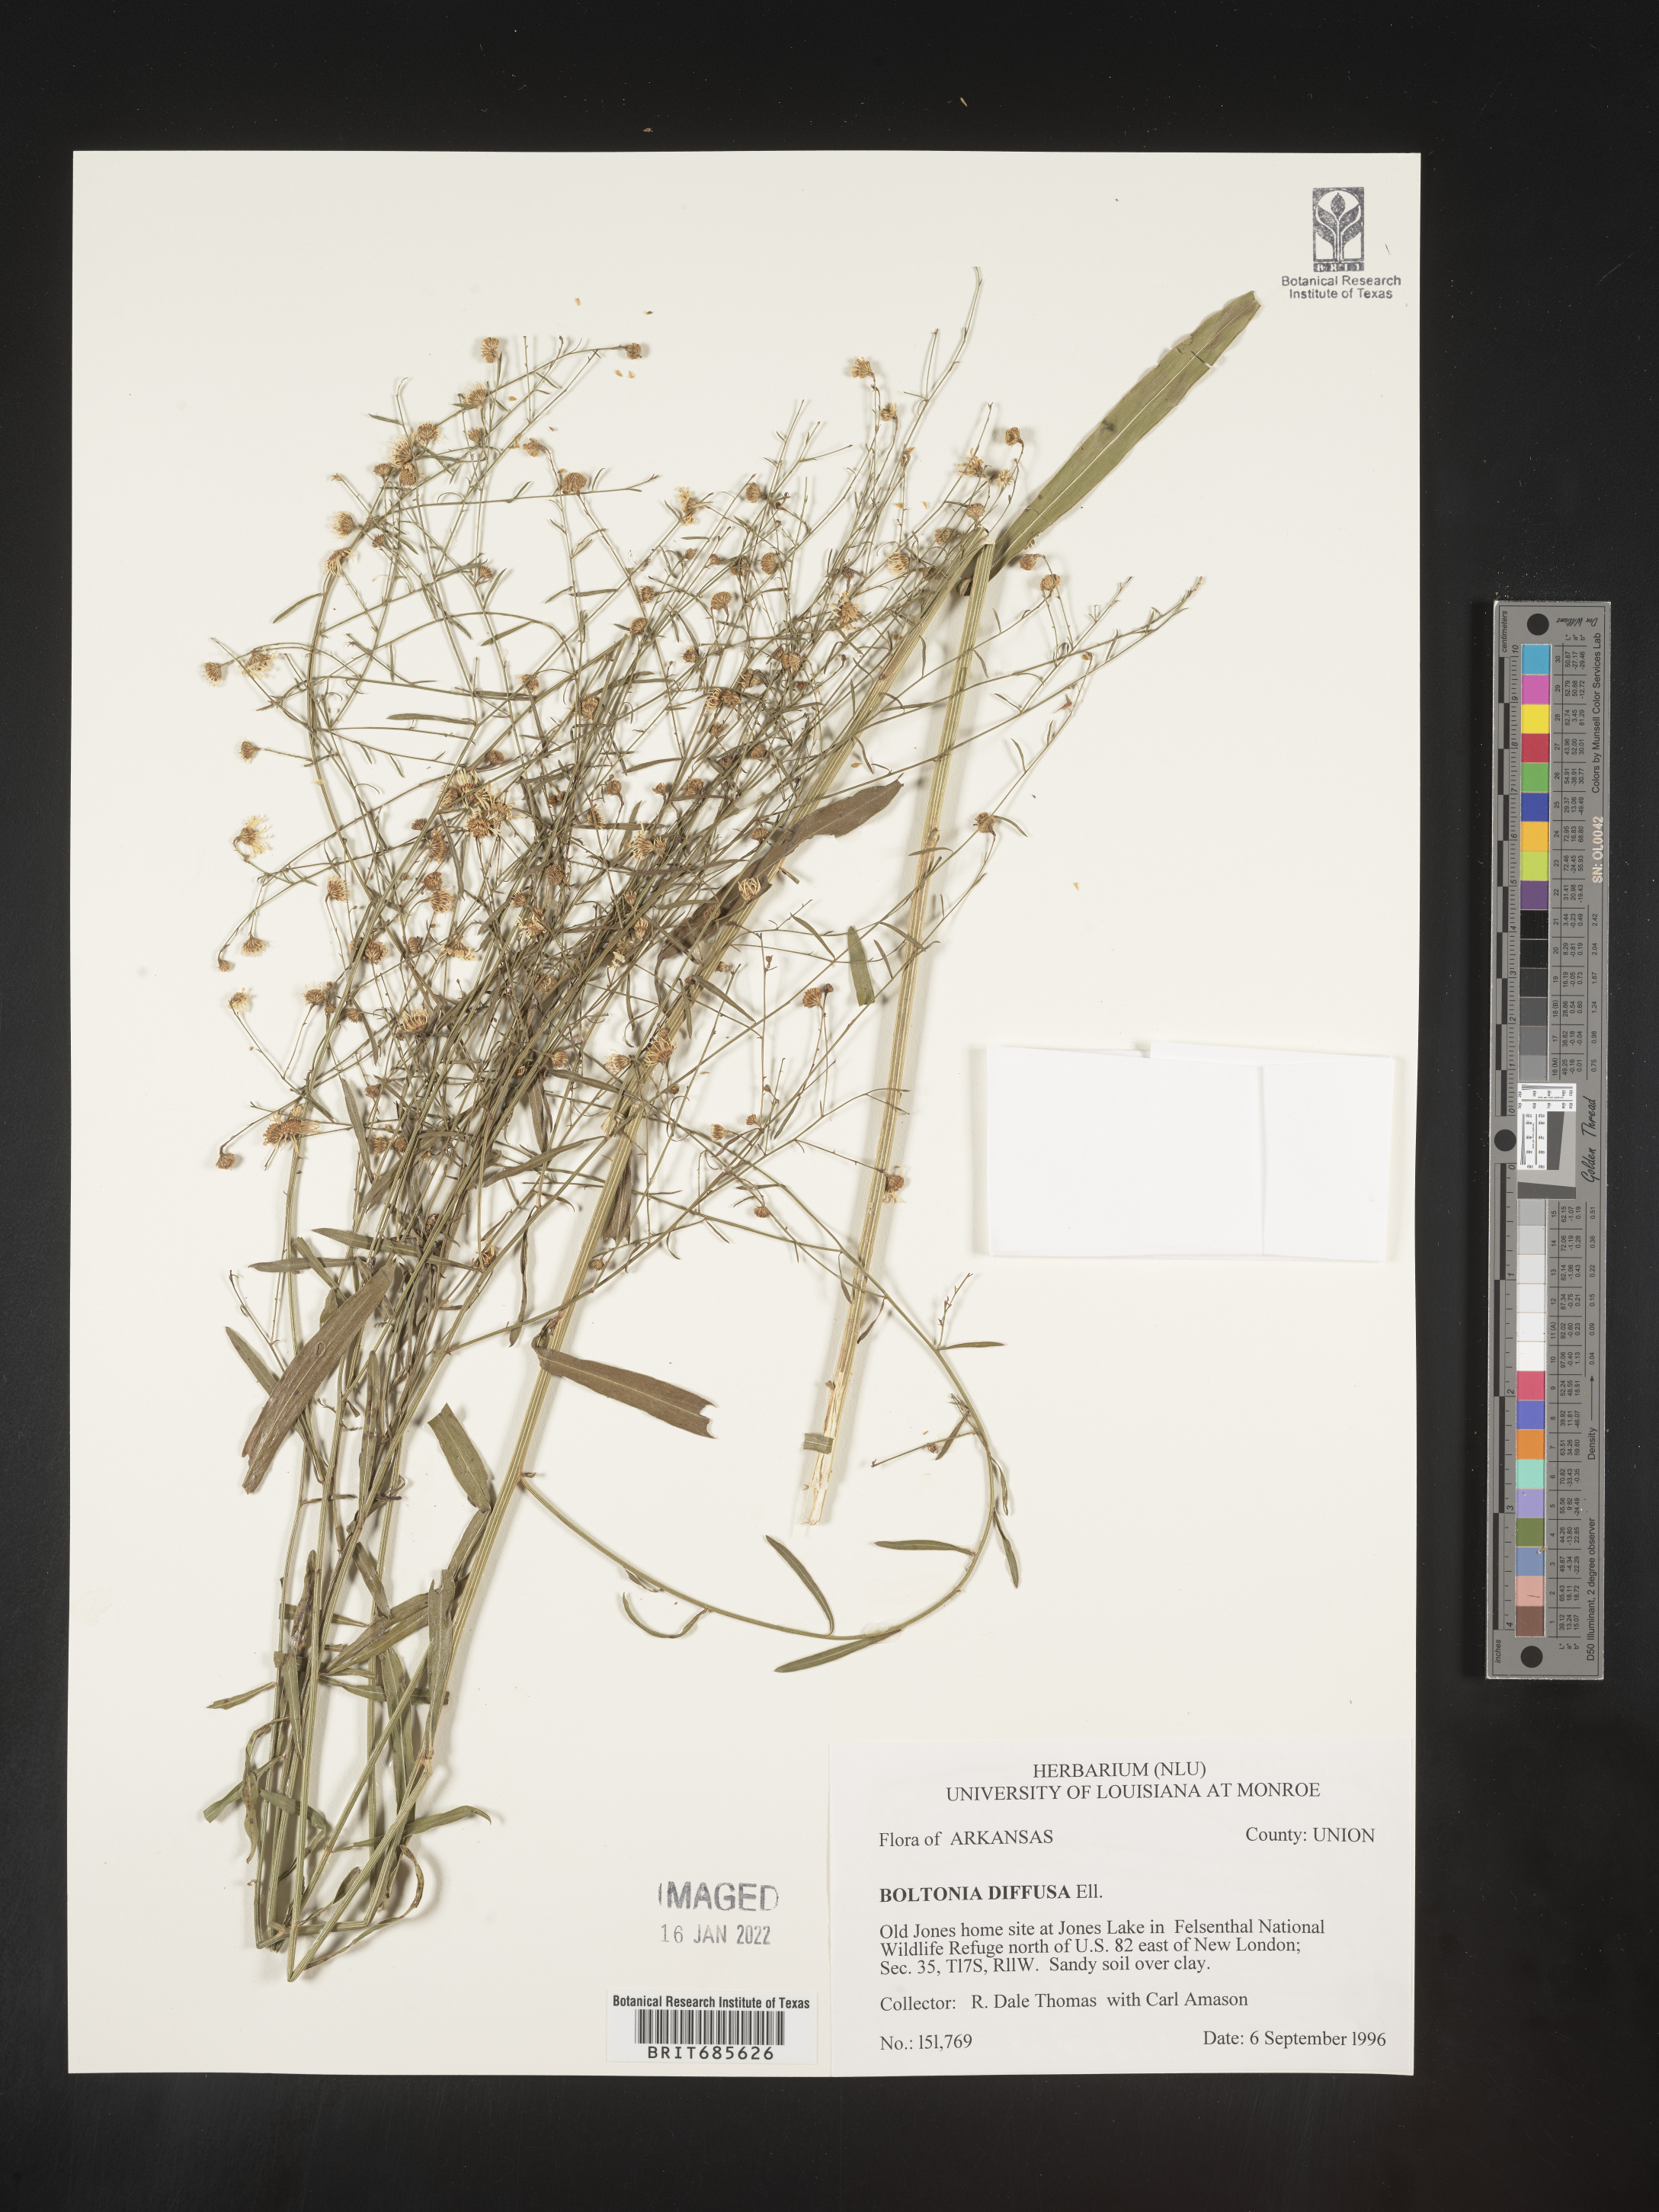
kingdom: Plantae
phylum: Tracheophyta
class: Magnoliopsida
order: Asterales
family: Asteraceae
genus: Boltonia
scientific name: Boltonia diffusa
